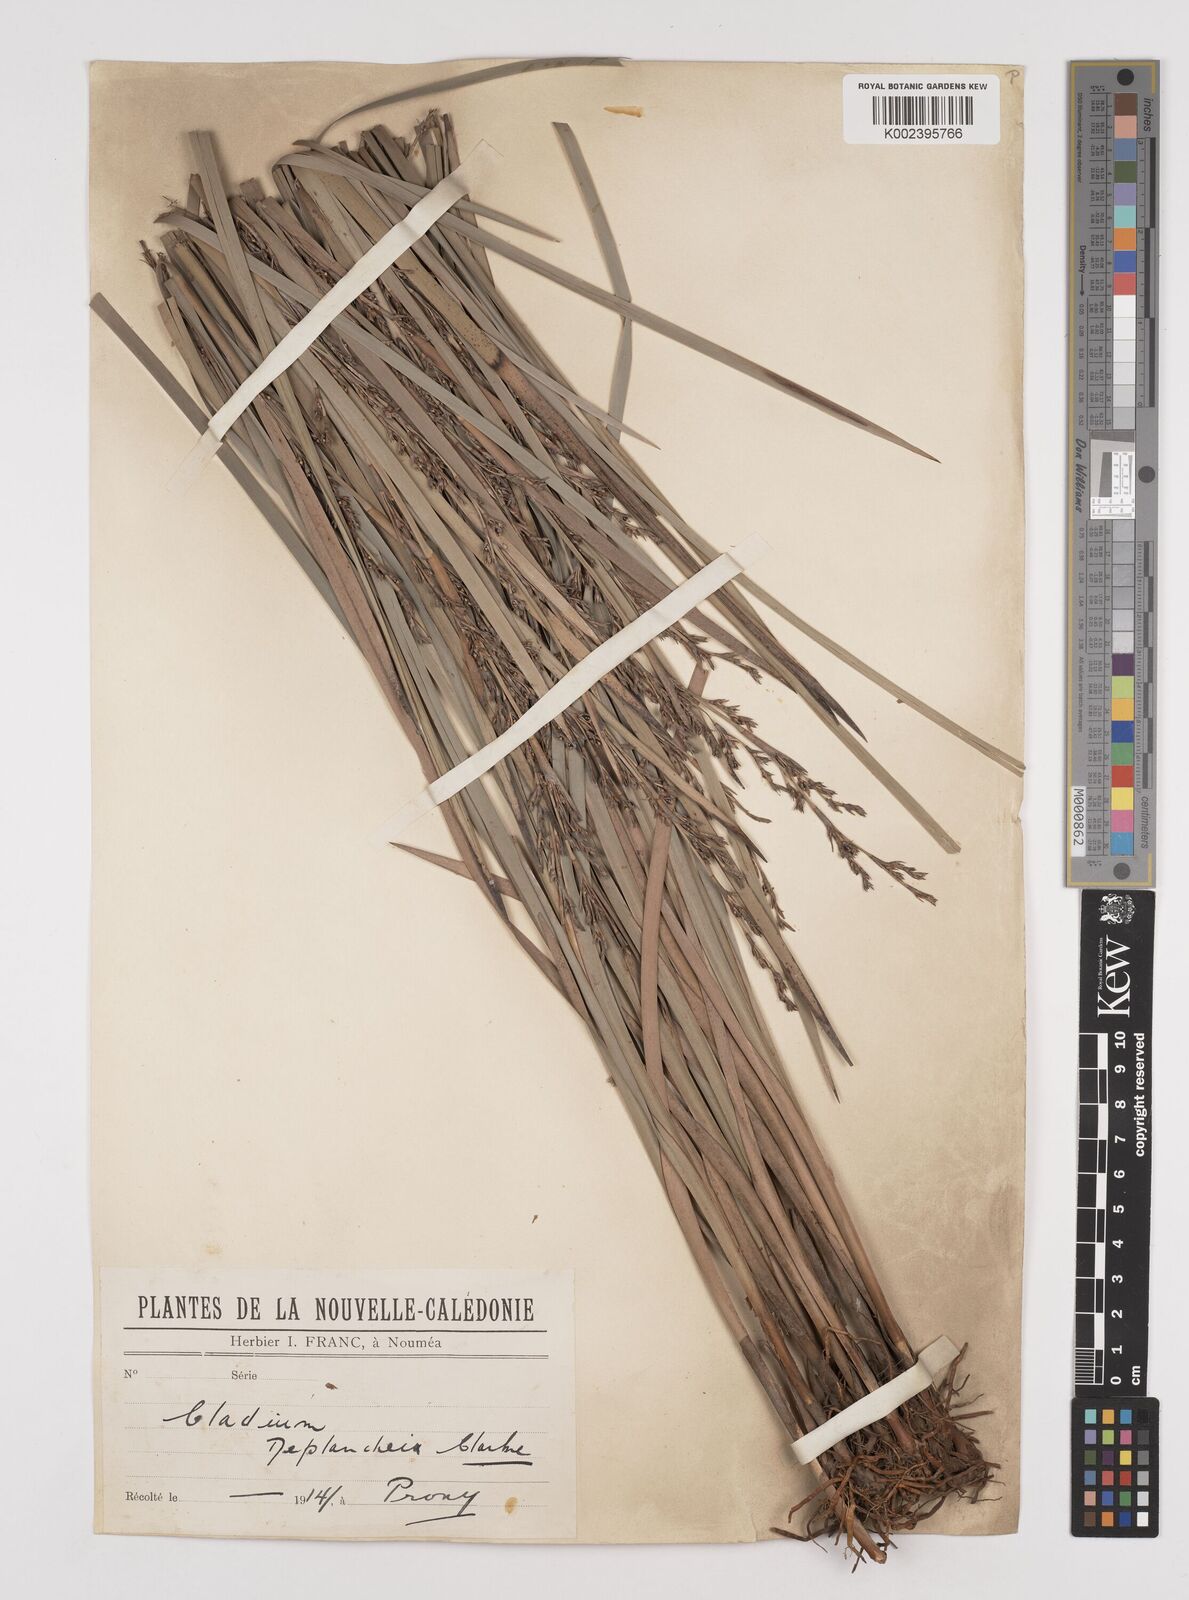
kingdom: Plantae
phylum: Tracheophyta
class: Liliopsida
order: Poales
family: Cyperaceae
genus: Machaerina
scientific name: Machaerina deplanchei
